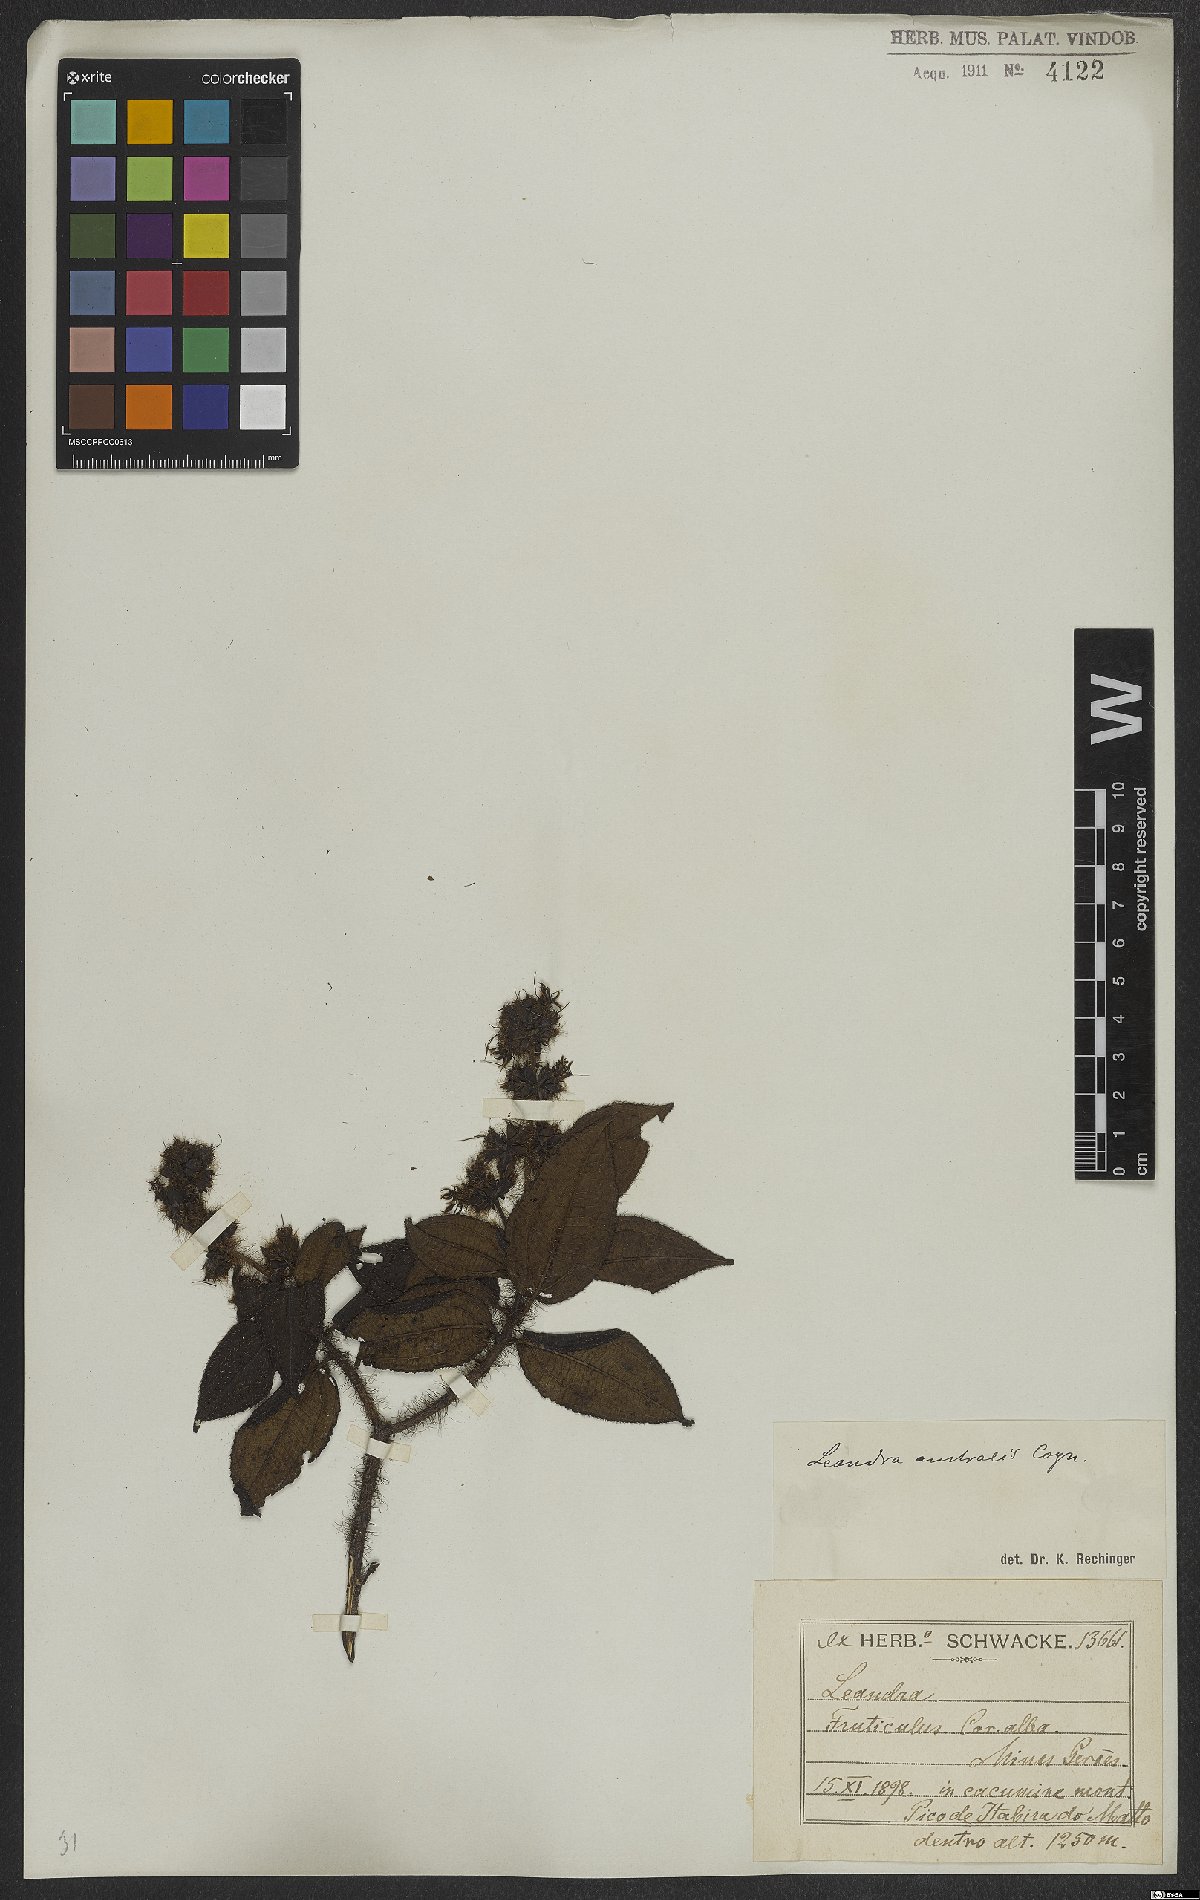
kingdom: Plantae
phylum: Tracheophyta
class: Magnoliopsida
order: Myrtales
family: Melastomataceae
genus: Miconia
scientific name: Miconia australis
